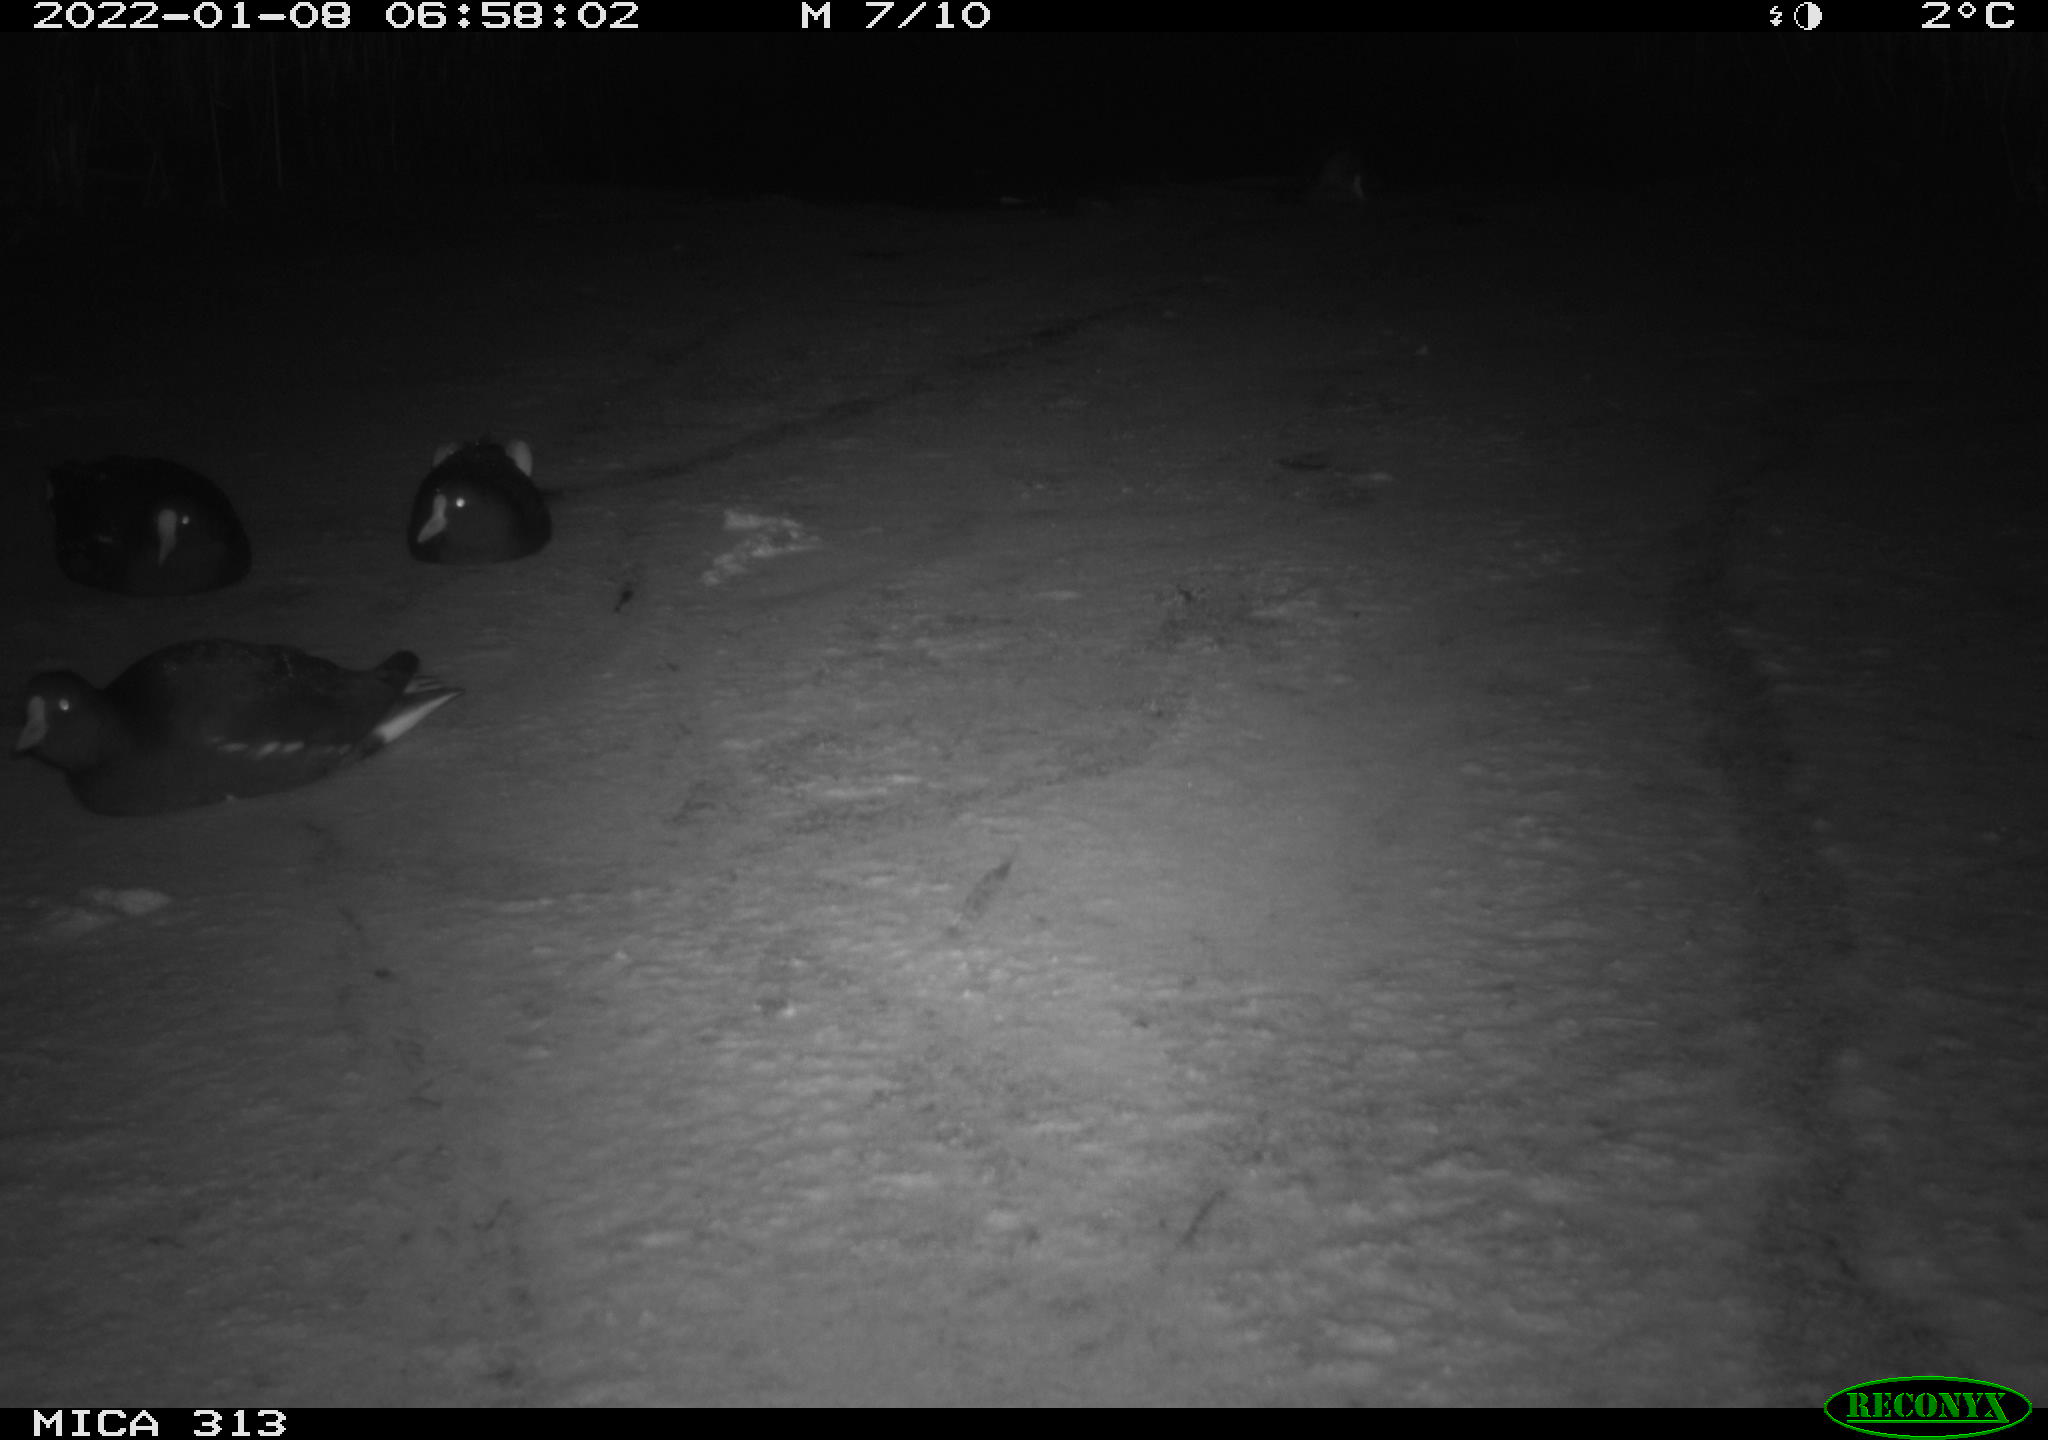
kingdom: Animalia
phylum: Chordata
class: Aves
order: Gruiformes
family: Rallidae
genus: Fulica
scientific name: Fulica atra
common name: Eurasian coot
